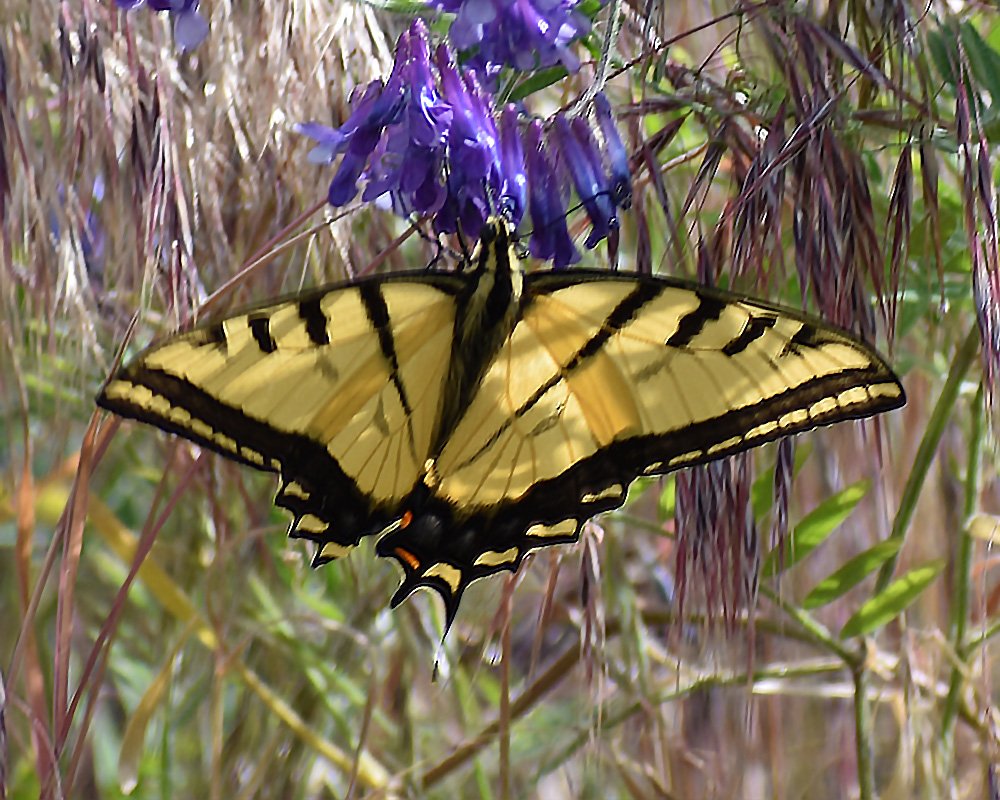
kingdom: Animalia
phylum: Arthropoda
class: Insecta
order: Lepidoptera
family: Papilionidae
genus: Papilio
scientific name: Papilio multicaudata
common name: Two-tailed Swallowtail
